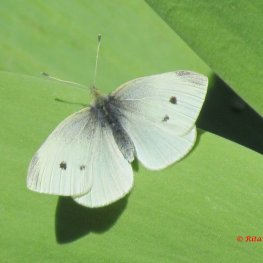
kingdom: Animalia
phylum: Arthropoda
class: Insecta
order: Lepidoptera
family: Pieridae
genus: Pieris
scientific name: Pieris rapae
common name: Cabbage White
